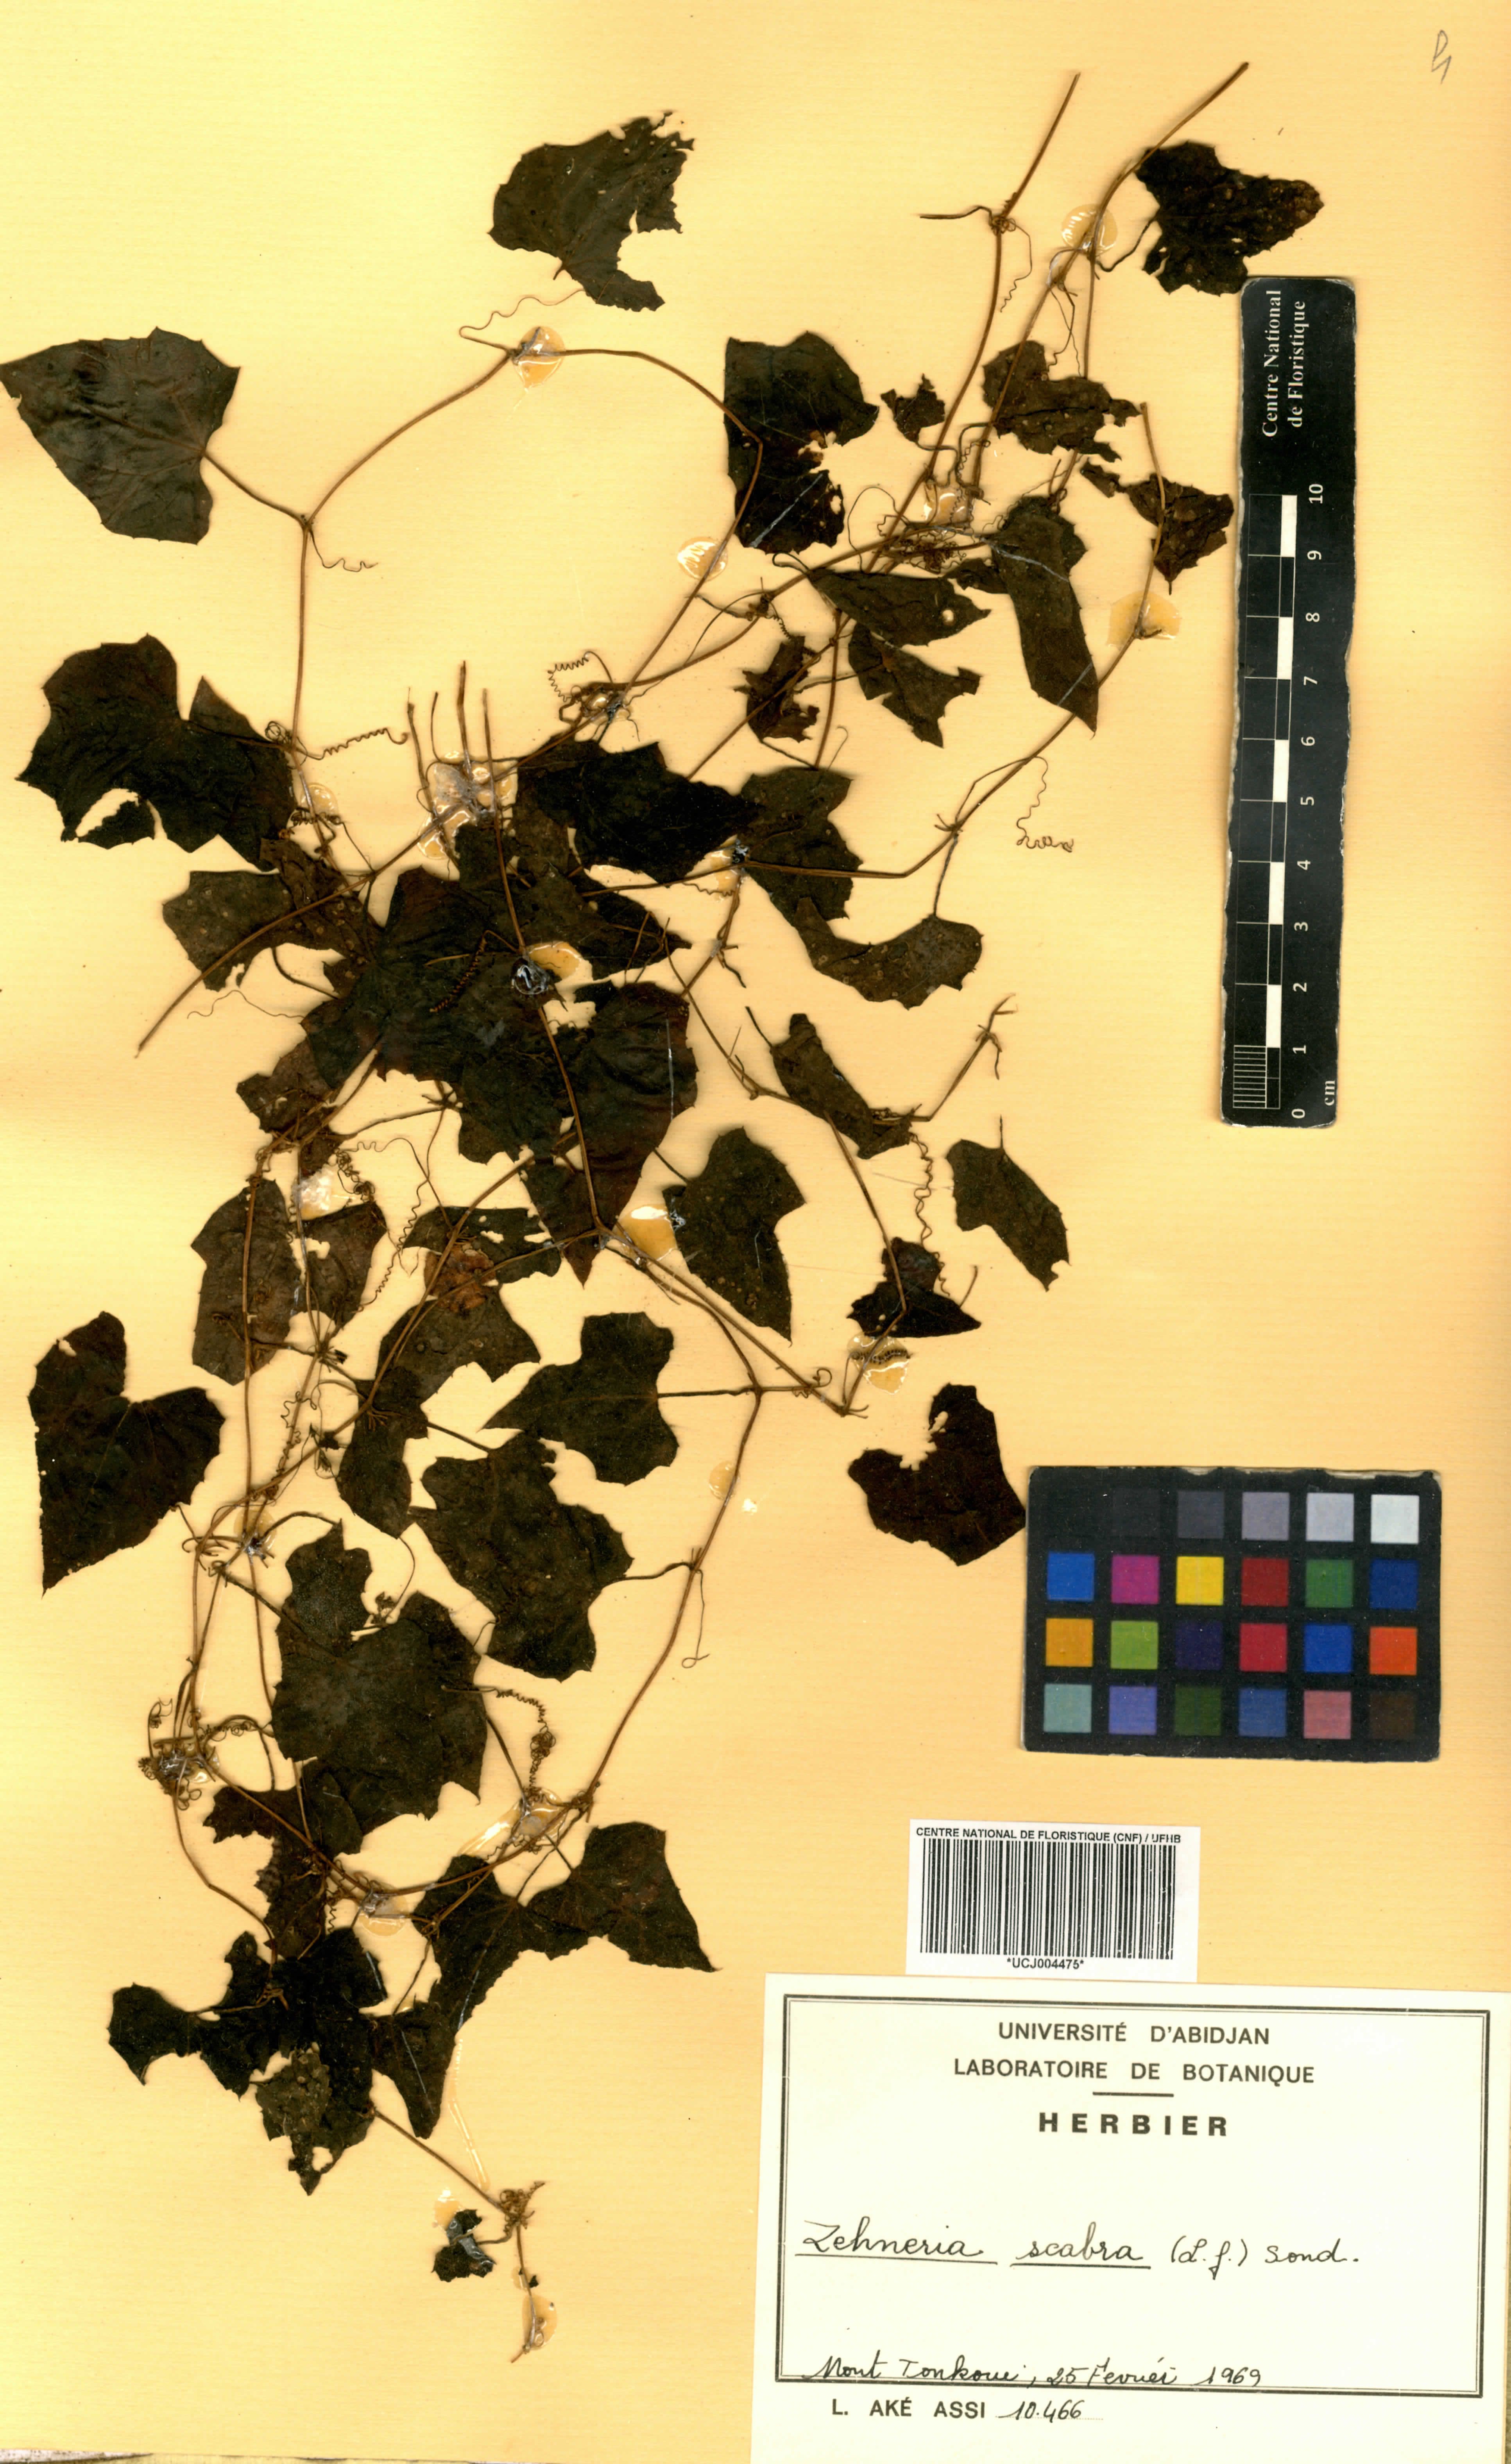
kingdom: Plantae
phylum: Tracheophyta
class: Magnoliopsida
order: Cucurbitales
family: Cucurbitaceae
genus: Zehneria
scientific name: Zehneria scabra
